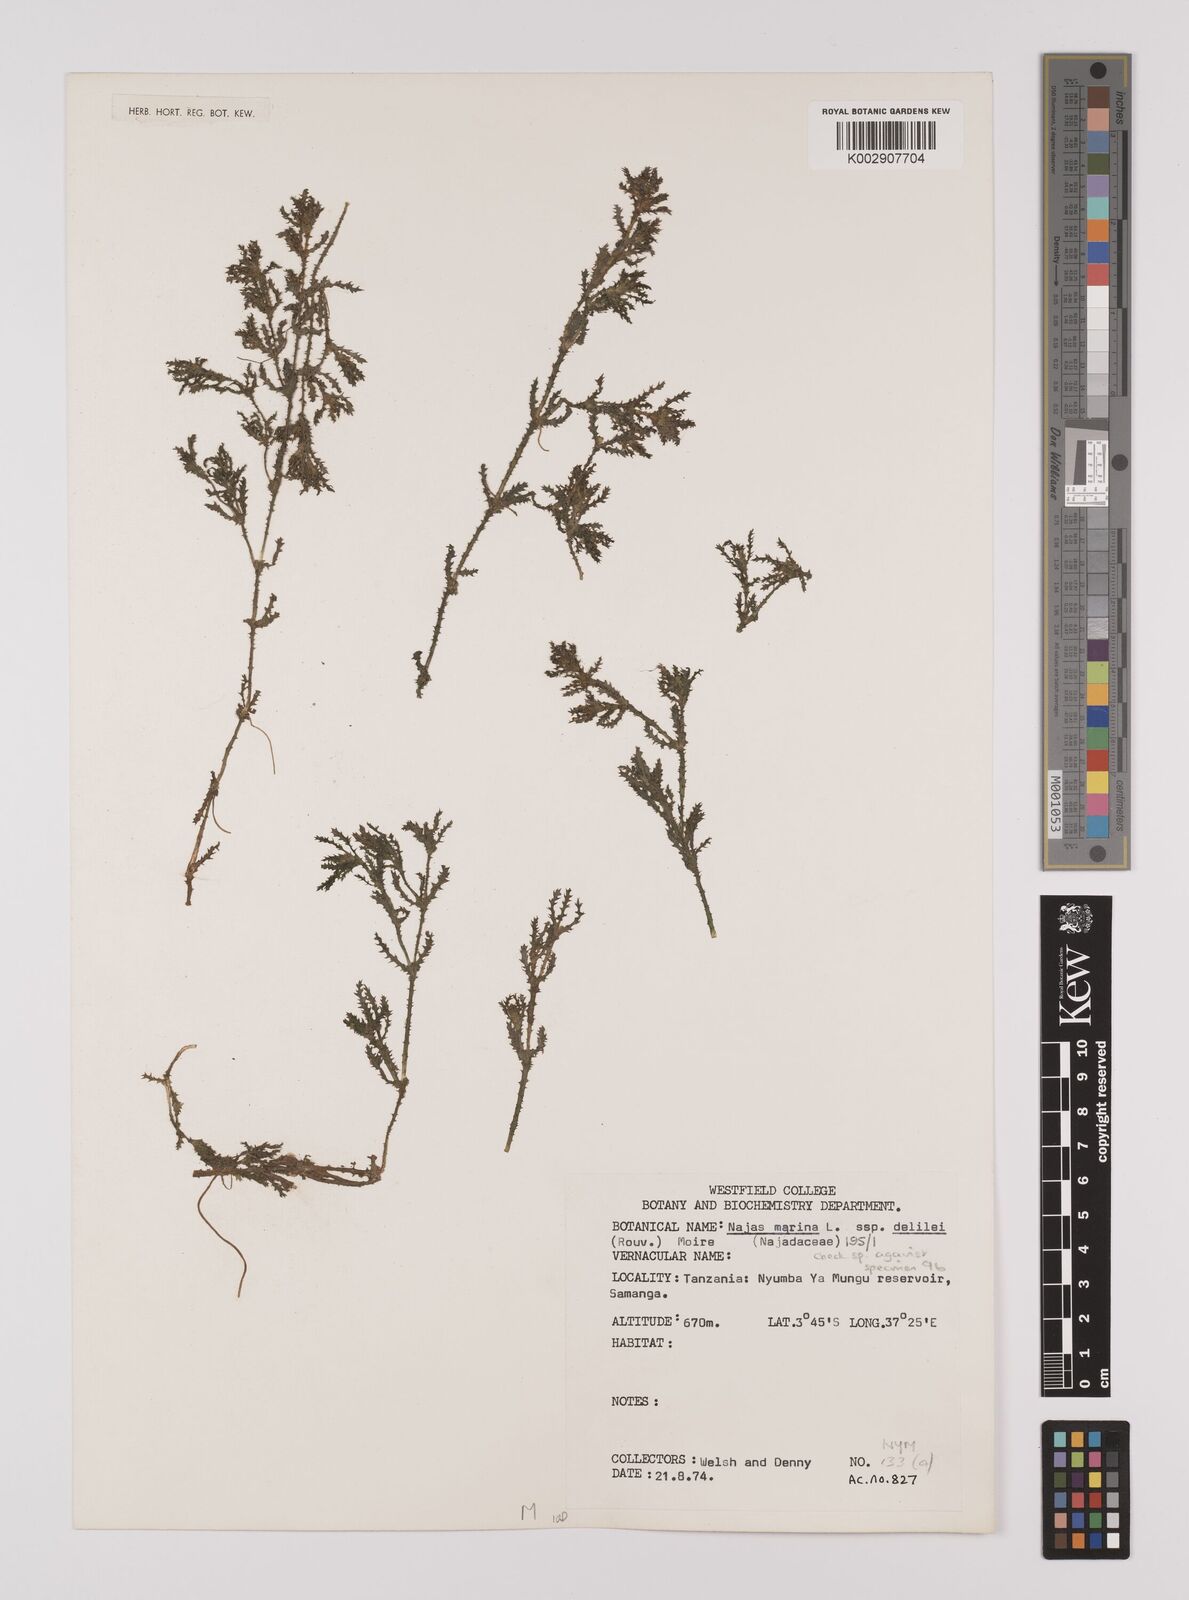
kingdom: Plantae
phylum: Tracheophyta
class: Liliopsida
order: Alismatales
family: Hydrocharitaceae
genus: Najas
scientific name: Najas marina
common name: Holly-leaved naiad
